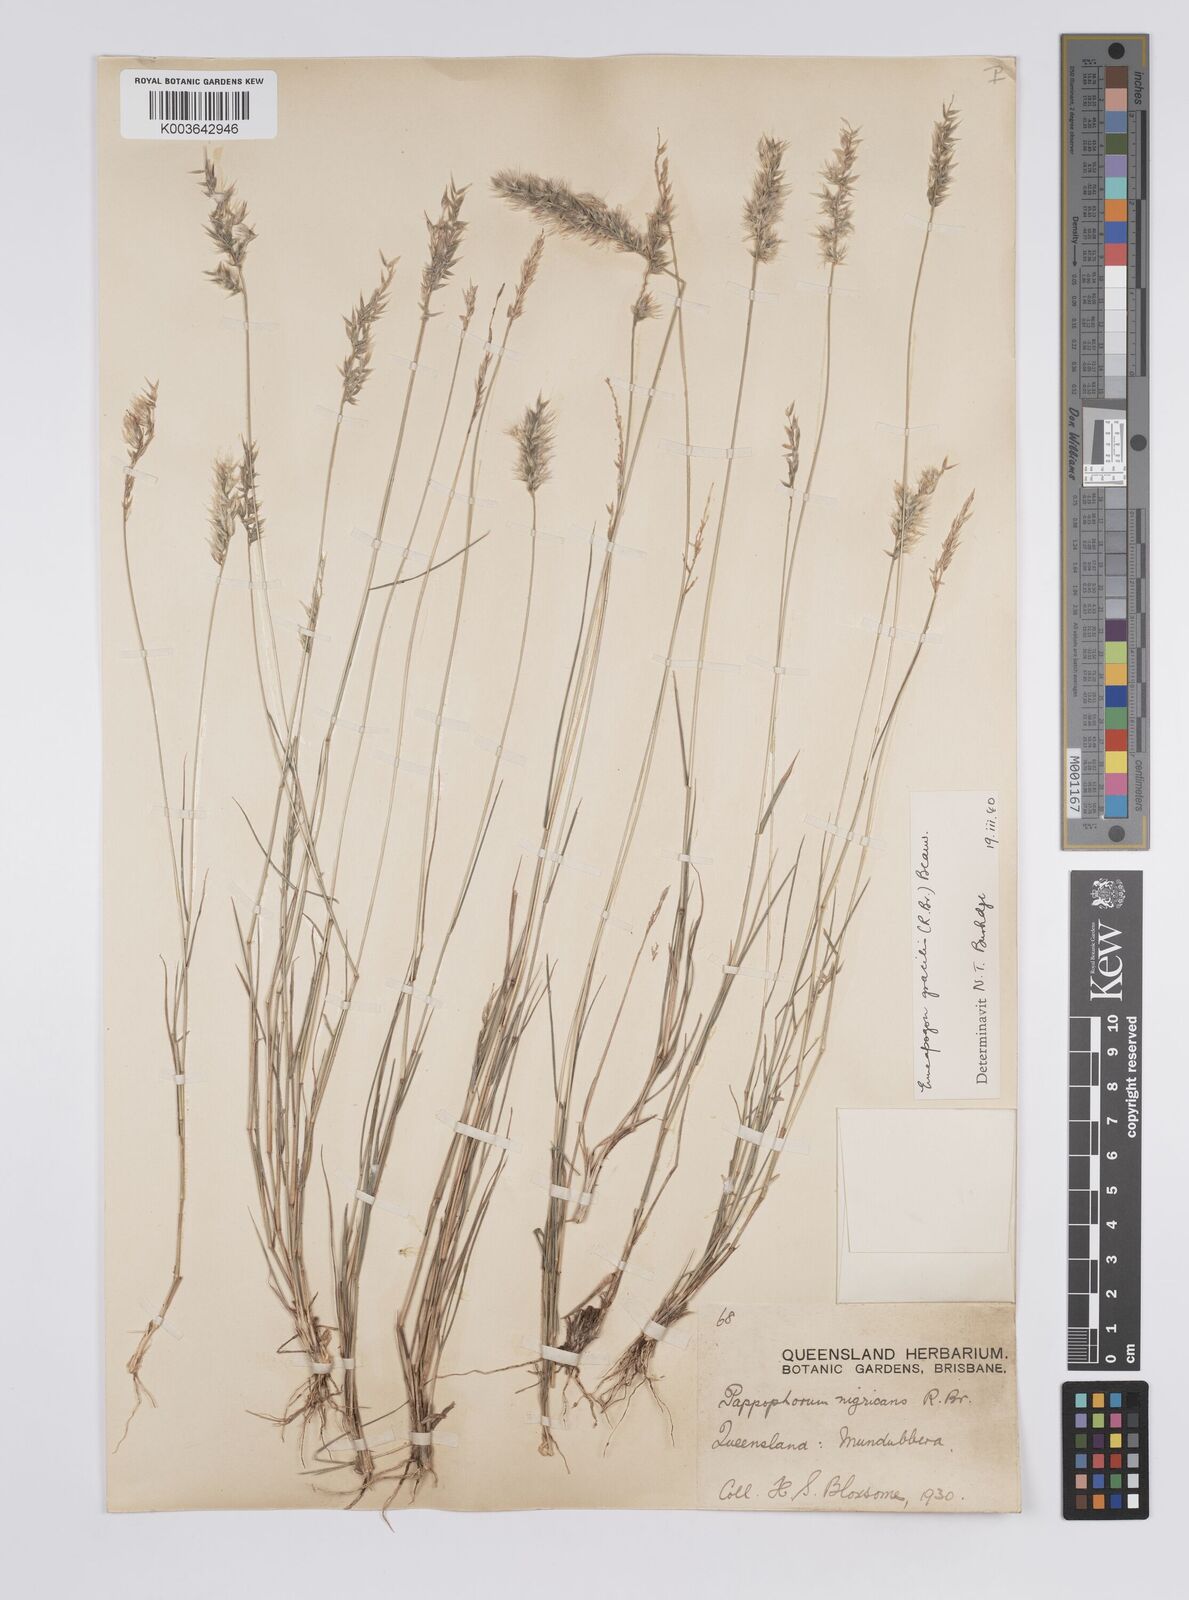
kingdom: Plantae
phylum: Tracheophyta
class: Liliopsida
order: Poales
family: Poaceae
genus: Enneapogon
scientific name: Enneapogon gracilis
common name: Slender bottle-washers
